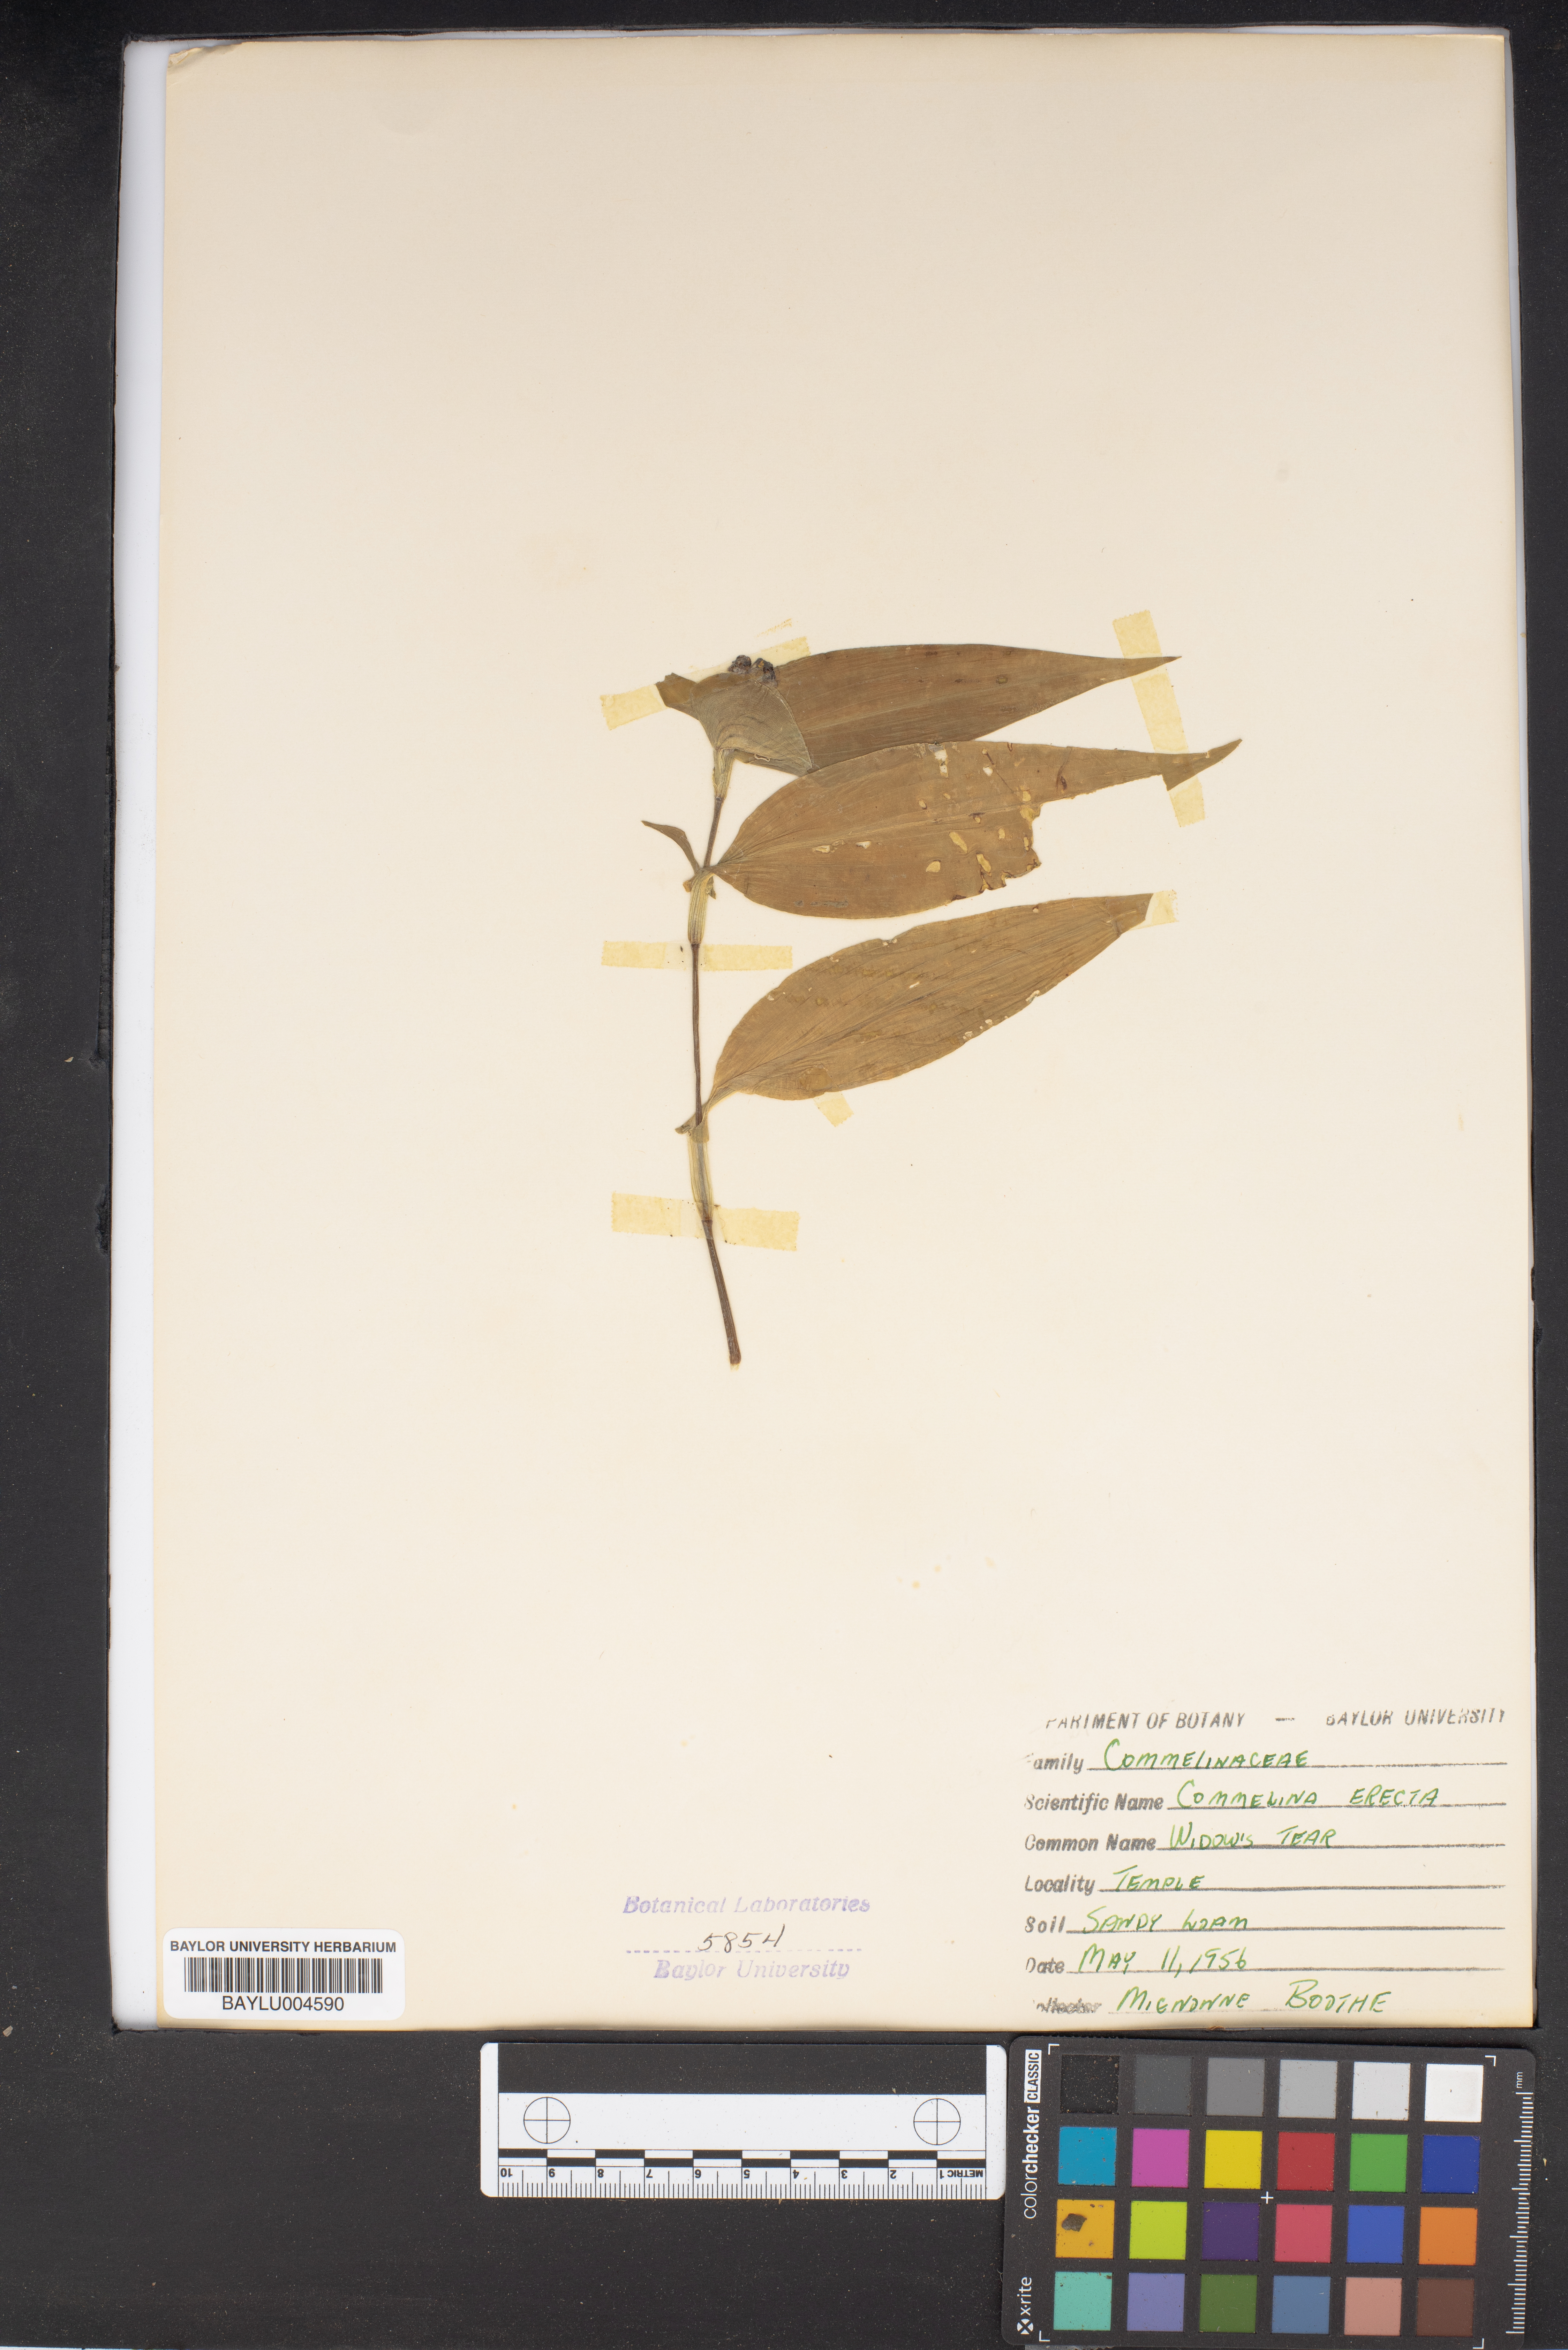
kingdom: Plantae
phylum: Tracheophyta
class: Liliopsida
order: Commelinales
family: Commelinaceae
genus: Commelina
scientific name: Commelina erecta
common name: Blousel blommetjie
